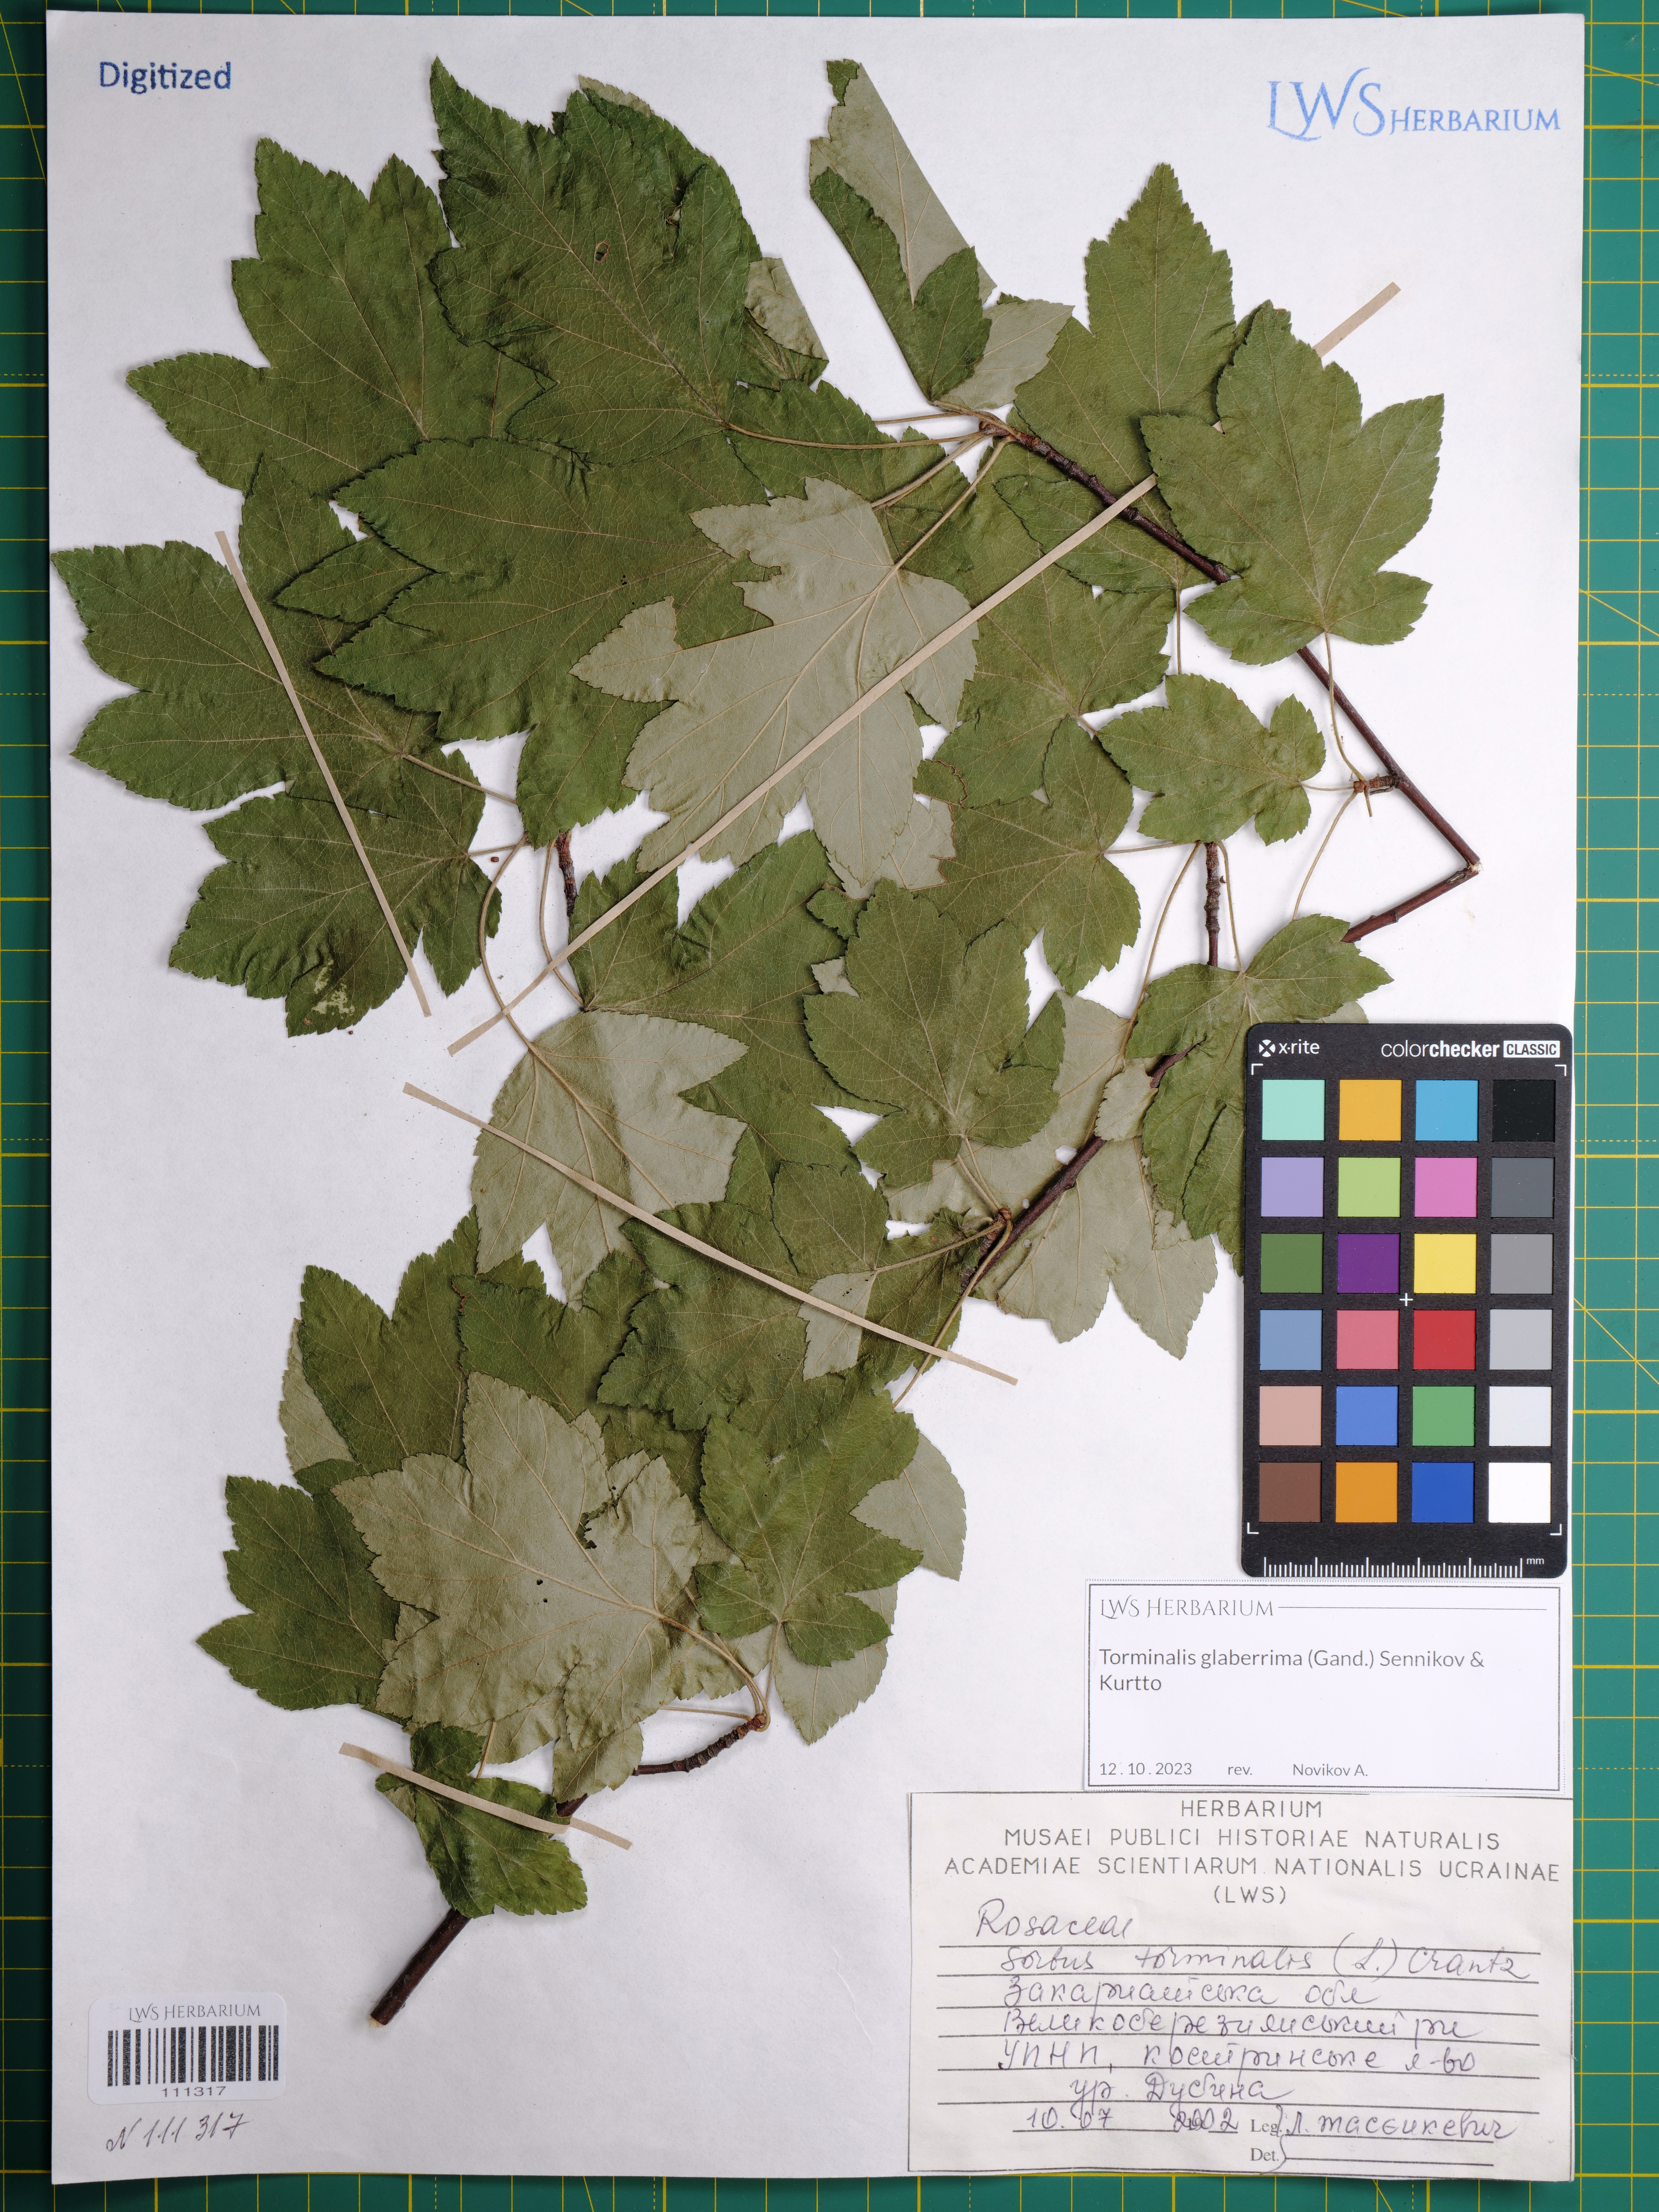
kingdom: Plantae
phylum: Tracheophyta
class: Magnoliopsida
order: Rosales
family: Rosaceae
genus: Torminalis
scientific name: Torminalis glaberrima
